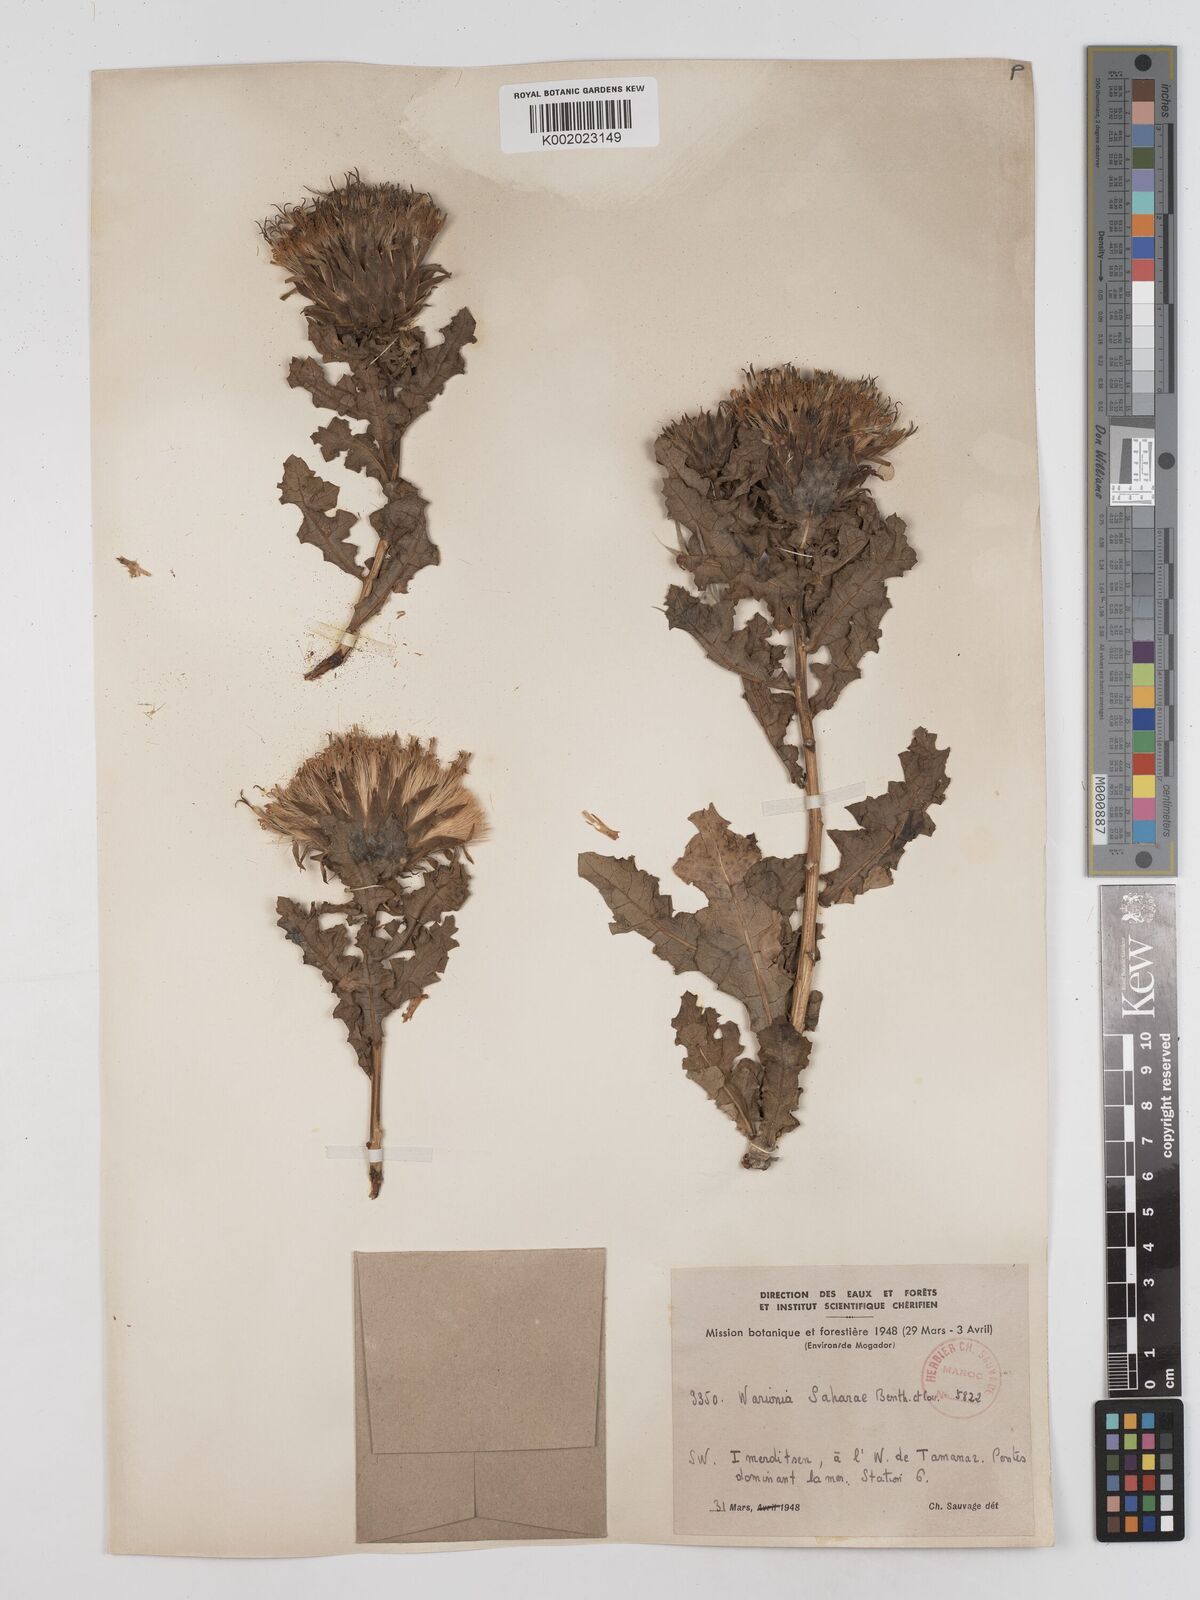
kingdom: Plantae
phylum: Tracheophyta
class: Magnoliopsida
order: Asterales
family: Asteraceae
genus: Warionia
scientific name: Warionia saharae
